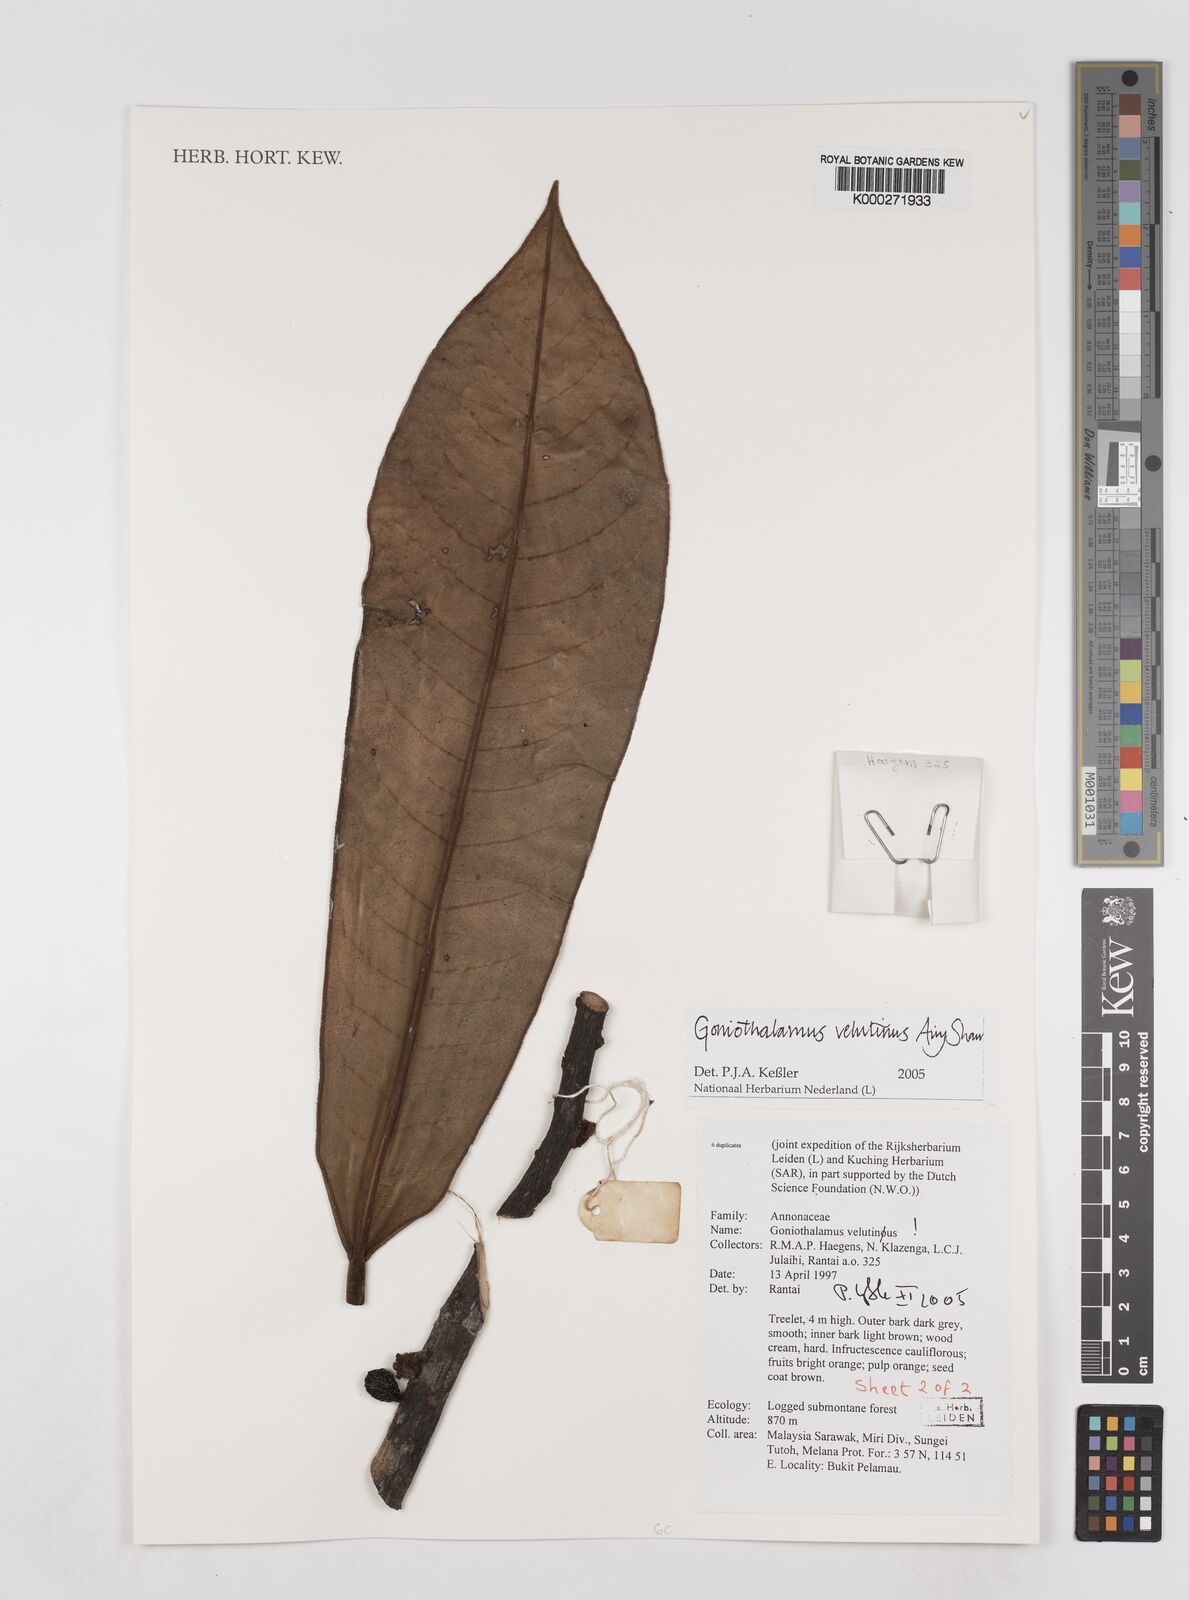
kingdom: Plantae
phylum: Tracheophyta
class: Magnoliopsida
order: Magnoliales
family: Annonaceae
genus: Xylopia
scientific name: Xylopia malayana
